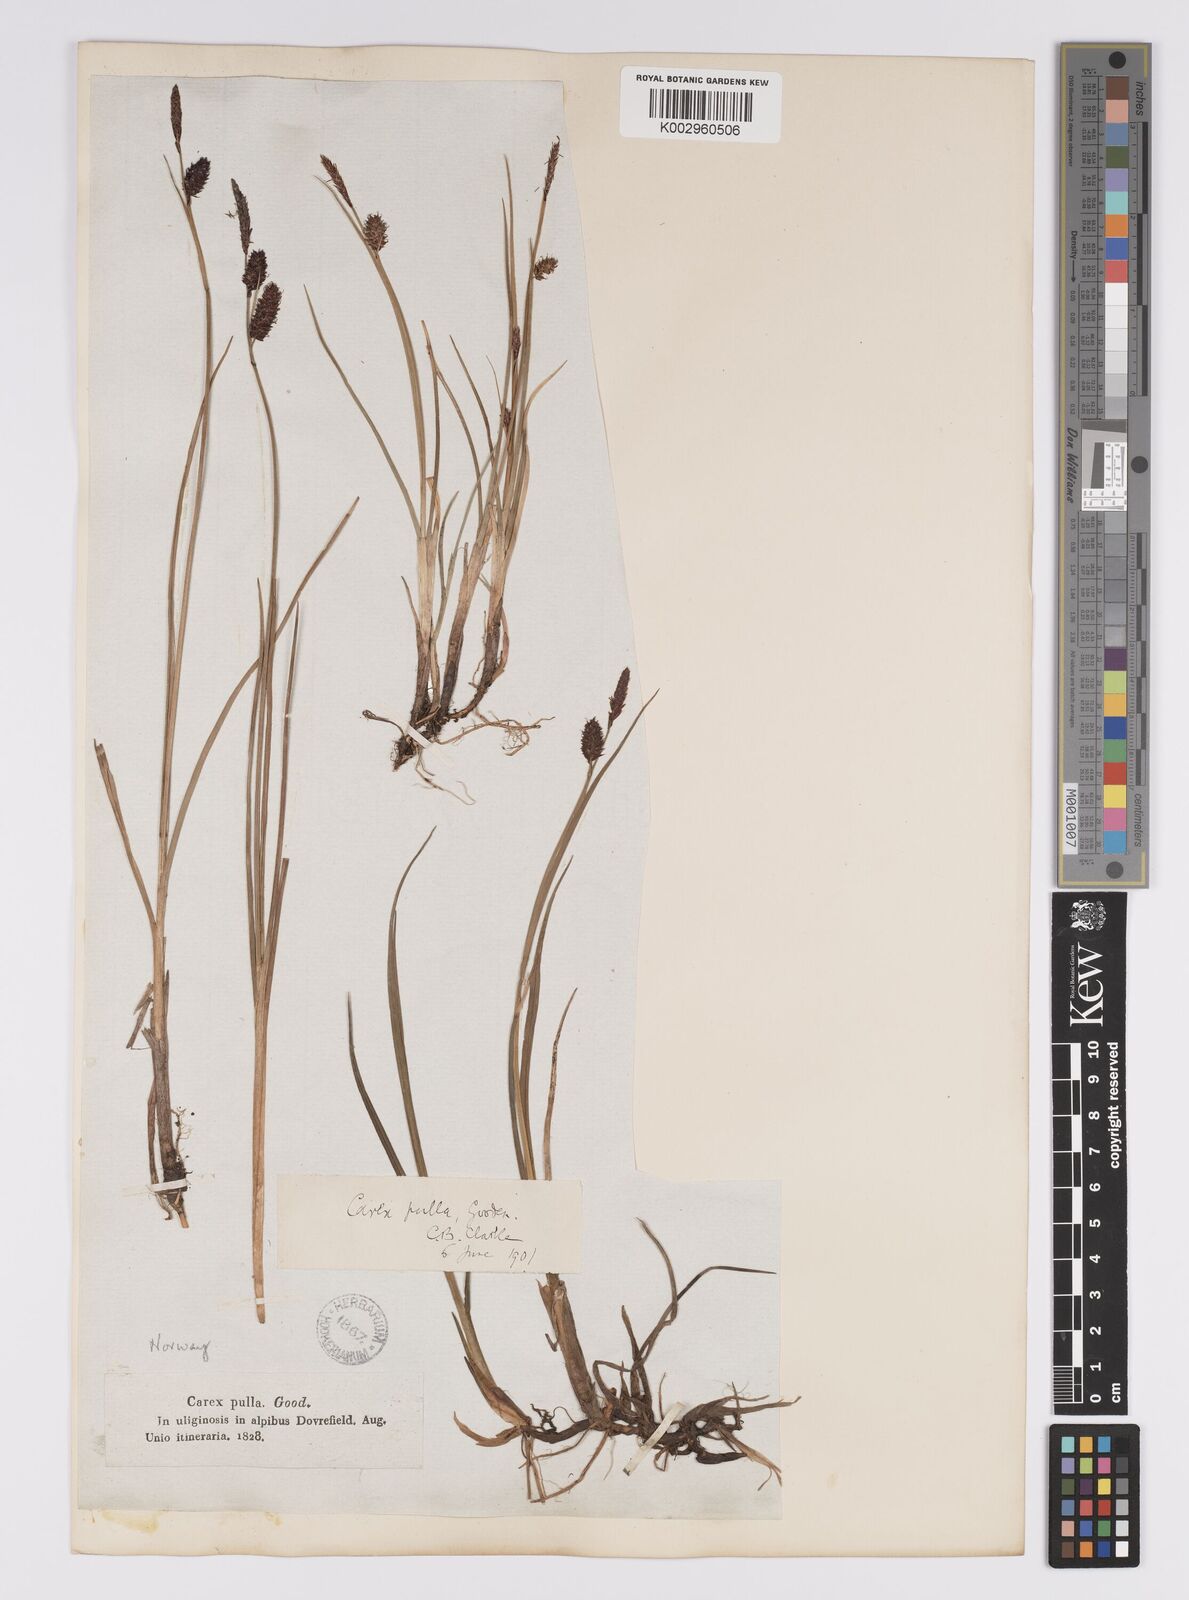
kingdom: Plantae
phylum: Tracheophyta
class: Liliopsida
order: Poales
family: Cyperaceae
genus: Carex
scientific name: Carex saxatilis
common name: Russet sedge
